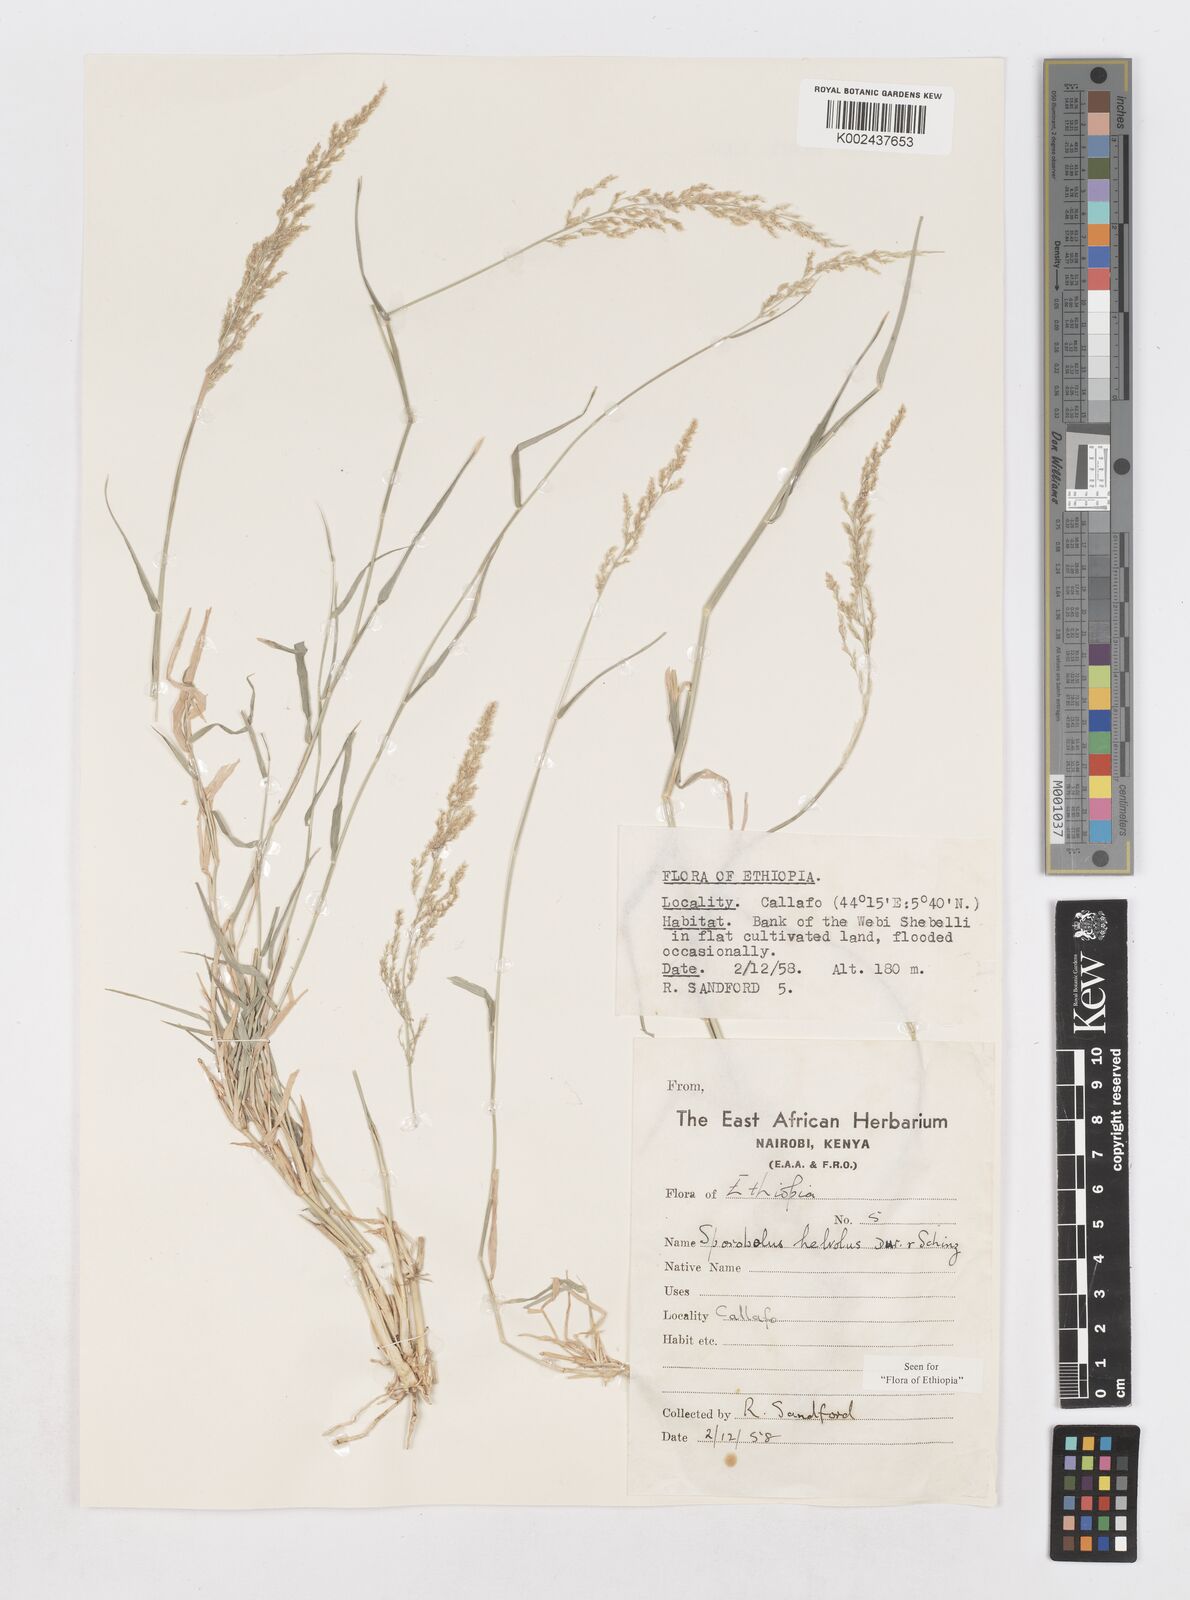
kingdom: Plantae
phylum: Tracheophyta
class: Liliopsida
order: Poales
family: Poaceae
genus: Sporobolus
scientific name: Sporobolus helvolus
